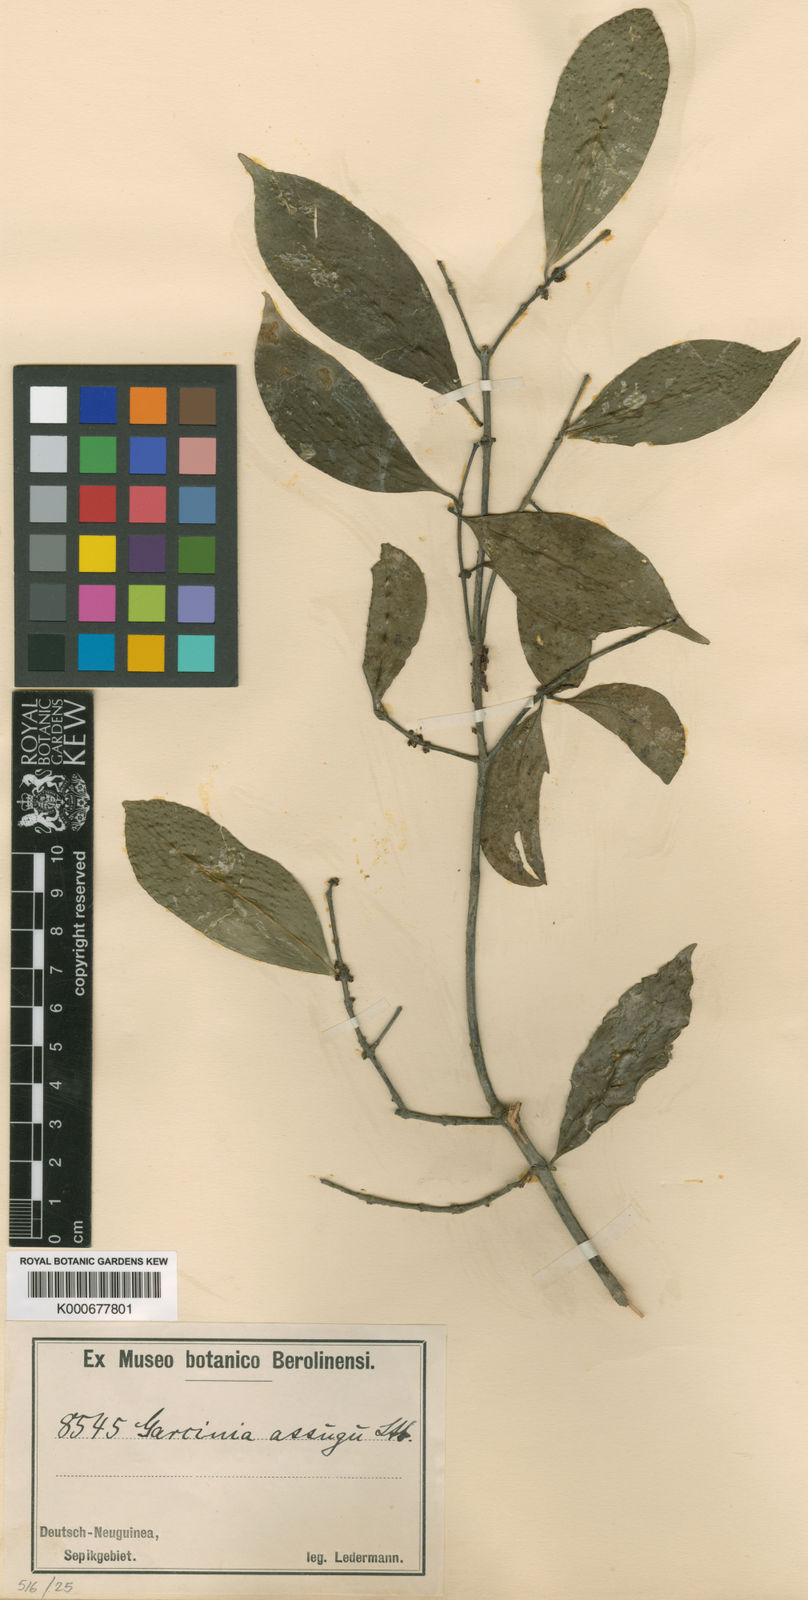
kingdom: Plantae
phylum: Tracheophyta
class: Magnoliopsida
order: Malpighiales
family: Clusiaceae
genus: Garcinia
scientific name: Garcinia assugu
